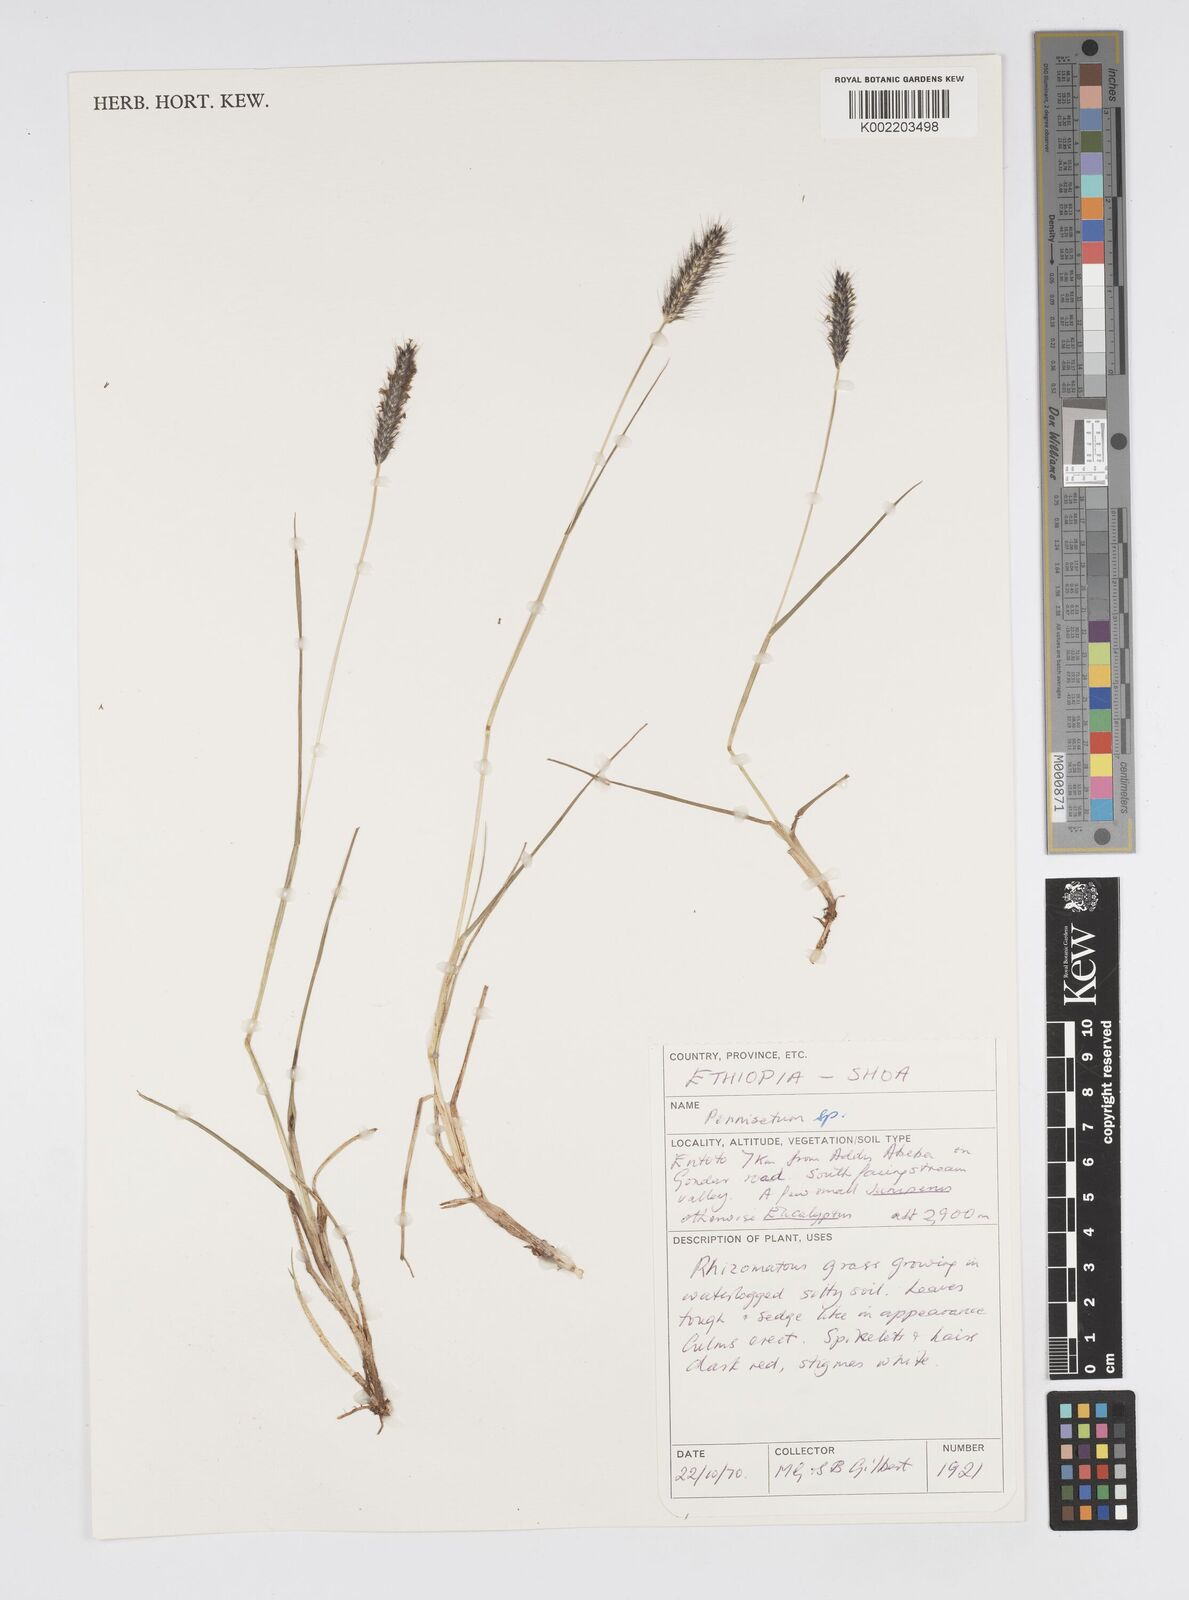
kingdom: Plantae
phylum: Tracheophyta
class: Liliopsida
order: Poales
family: Poaceae
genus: Cenchrus
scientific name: Cenchrus geniculatus
